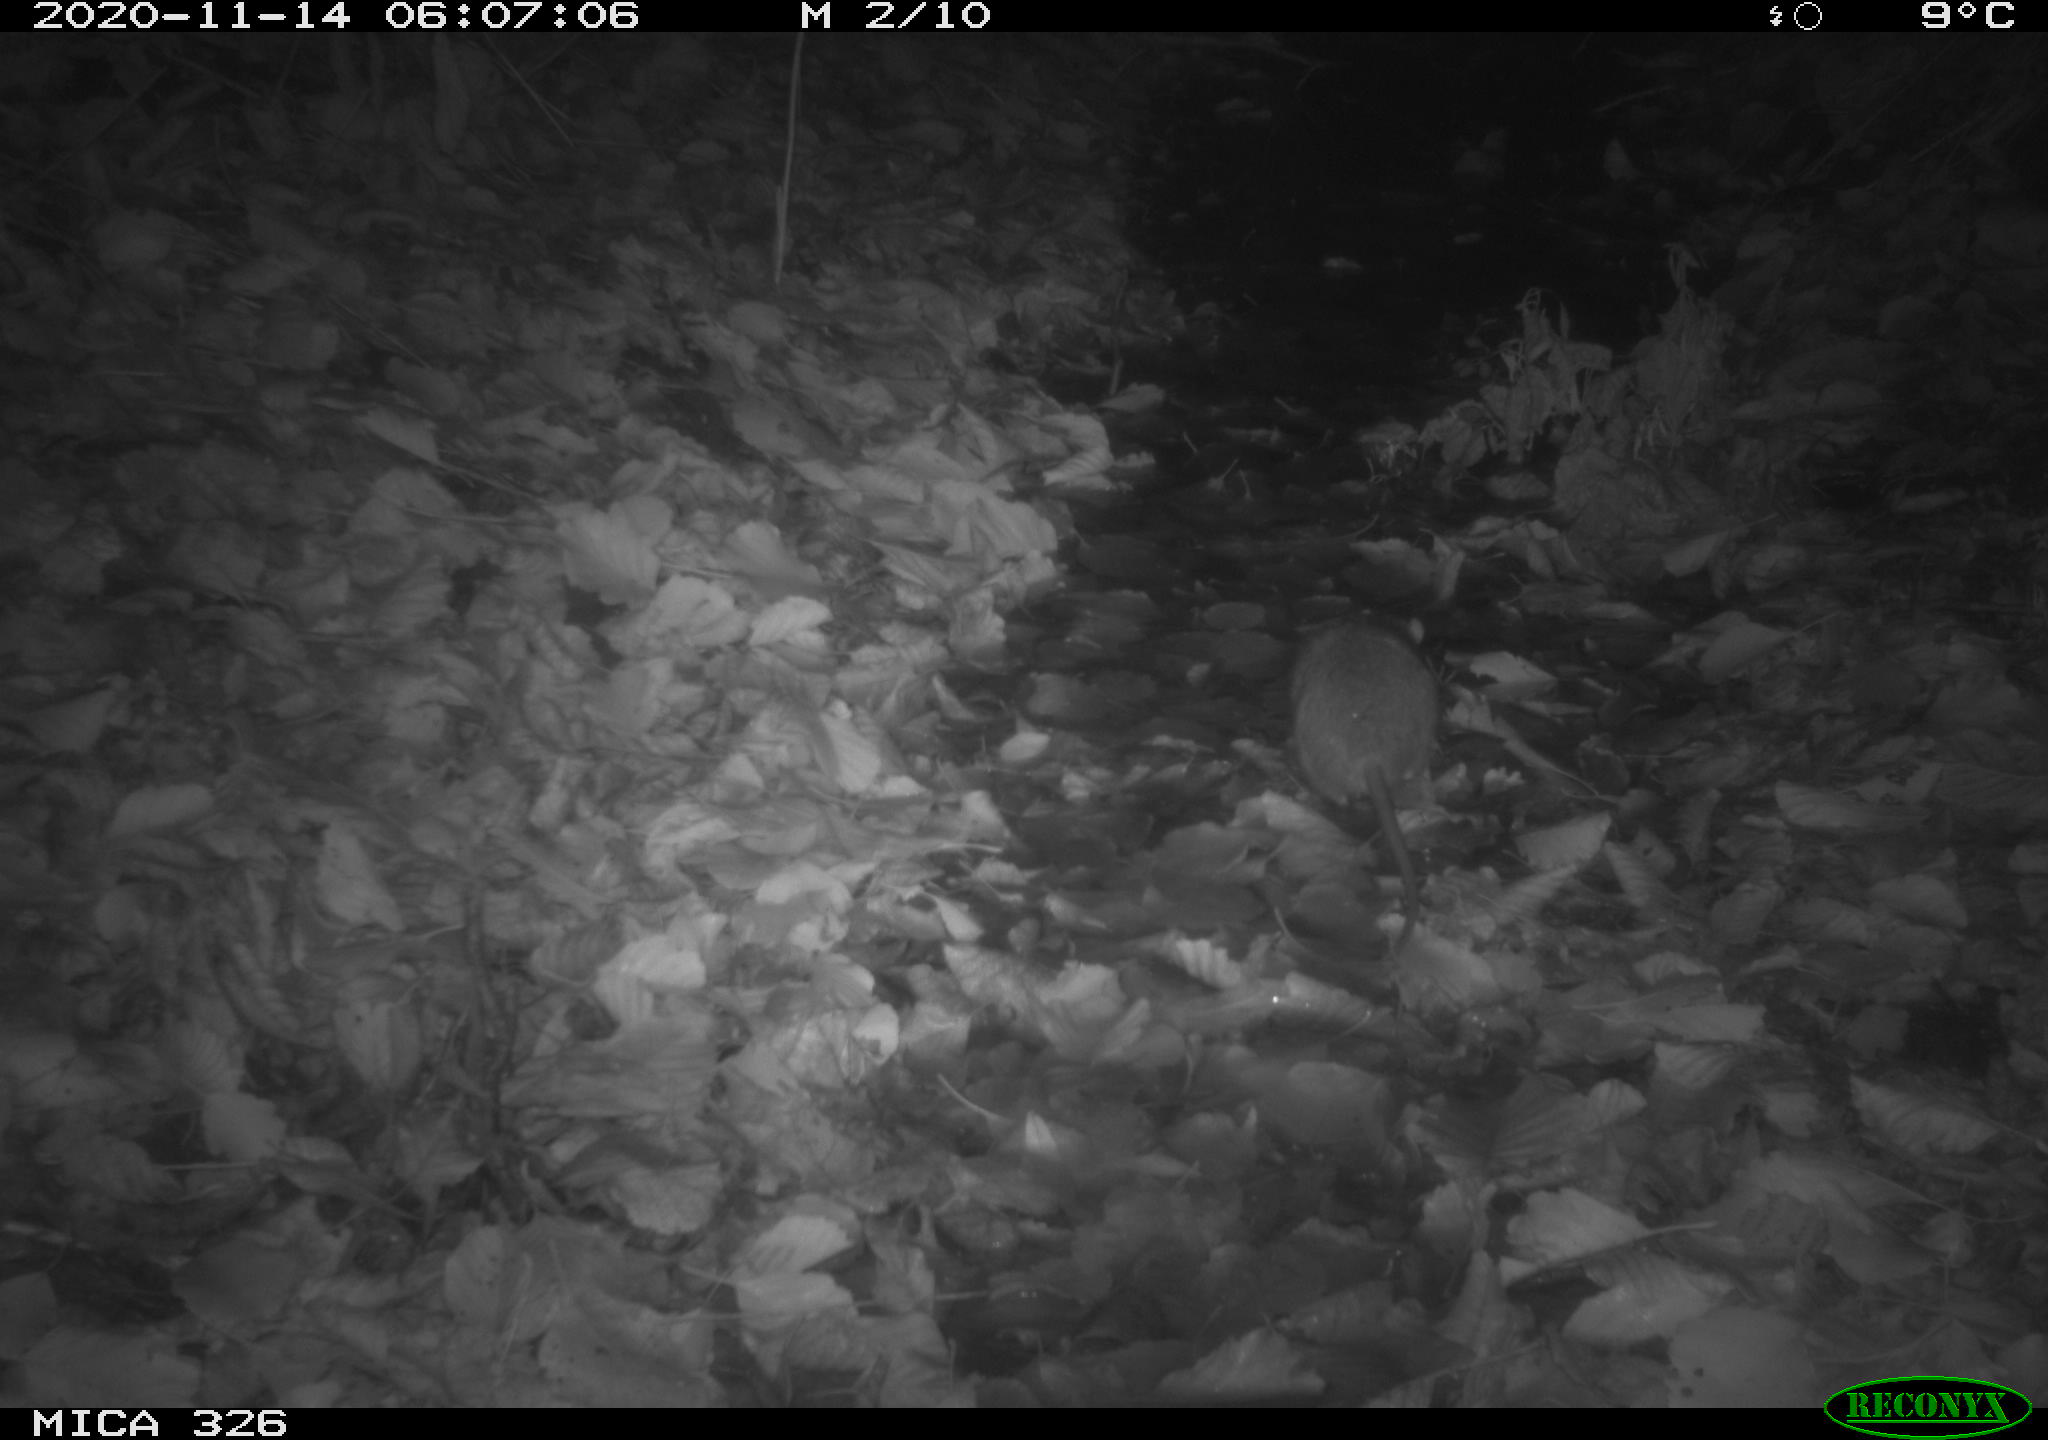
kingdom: Animalia
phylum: Chordata
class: Mammalia
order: Rodentia
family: Muridae
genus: Rattus
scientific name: Rattus norvegicus
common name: Brown rat
